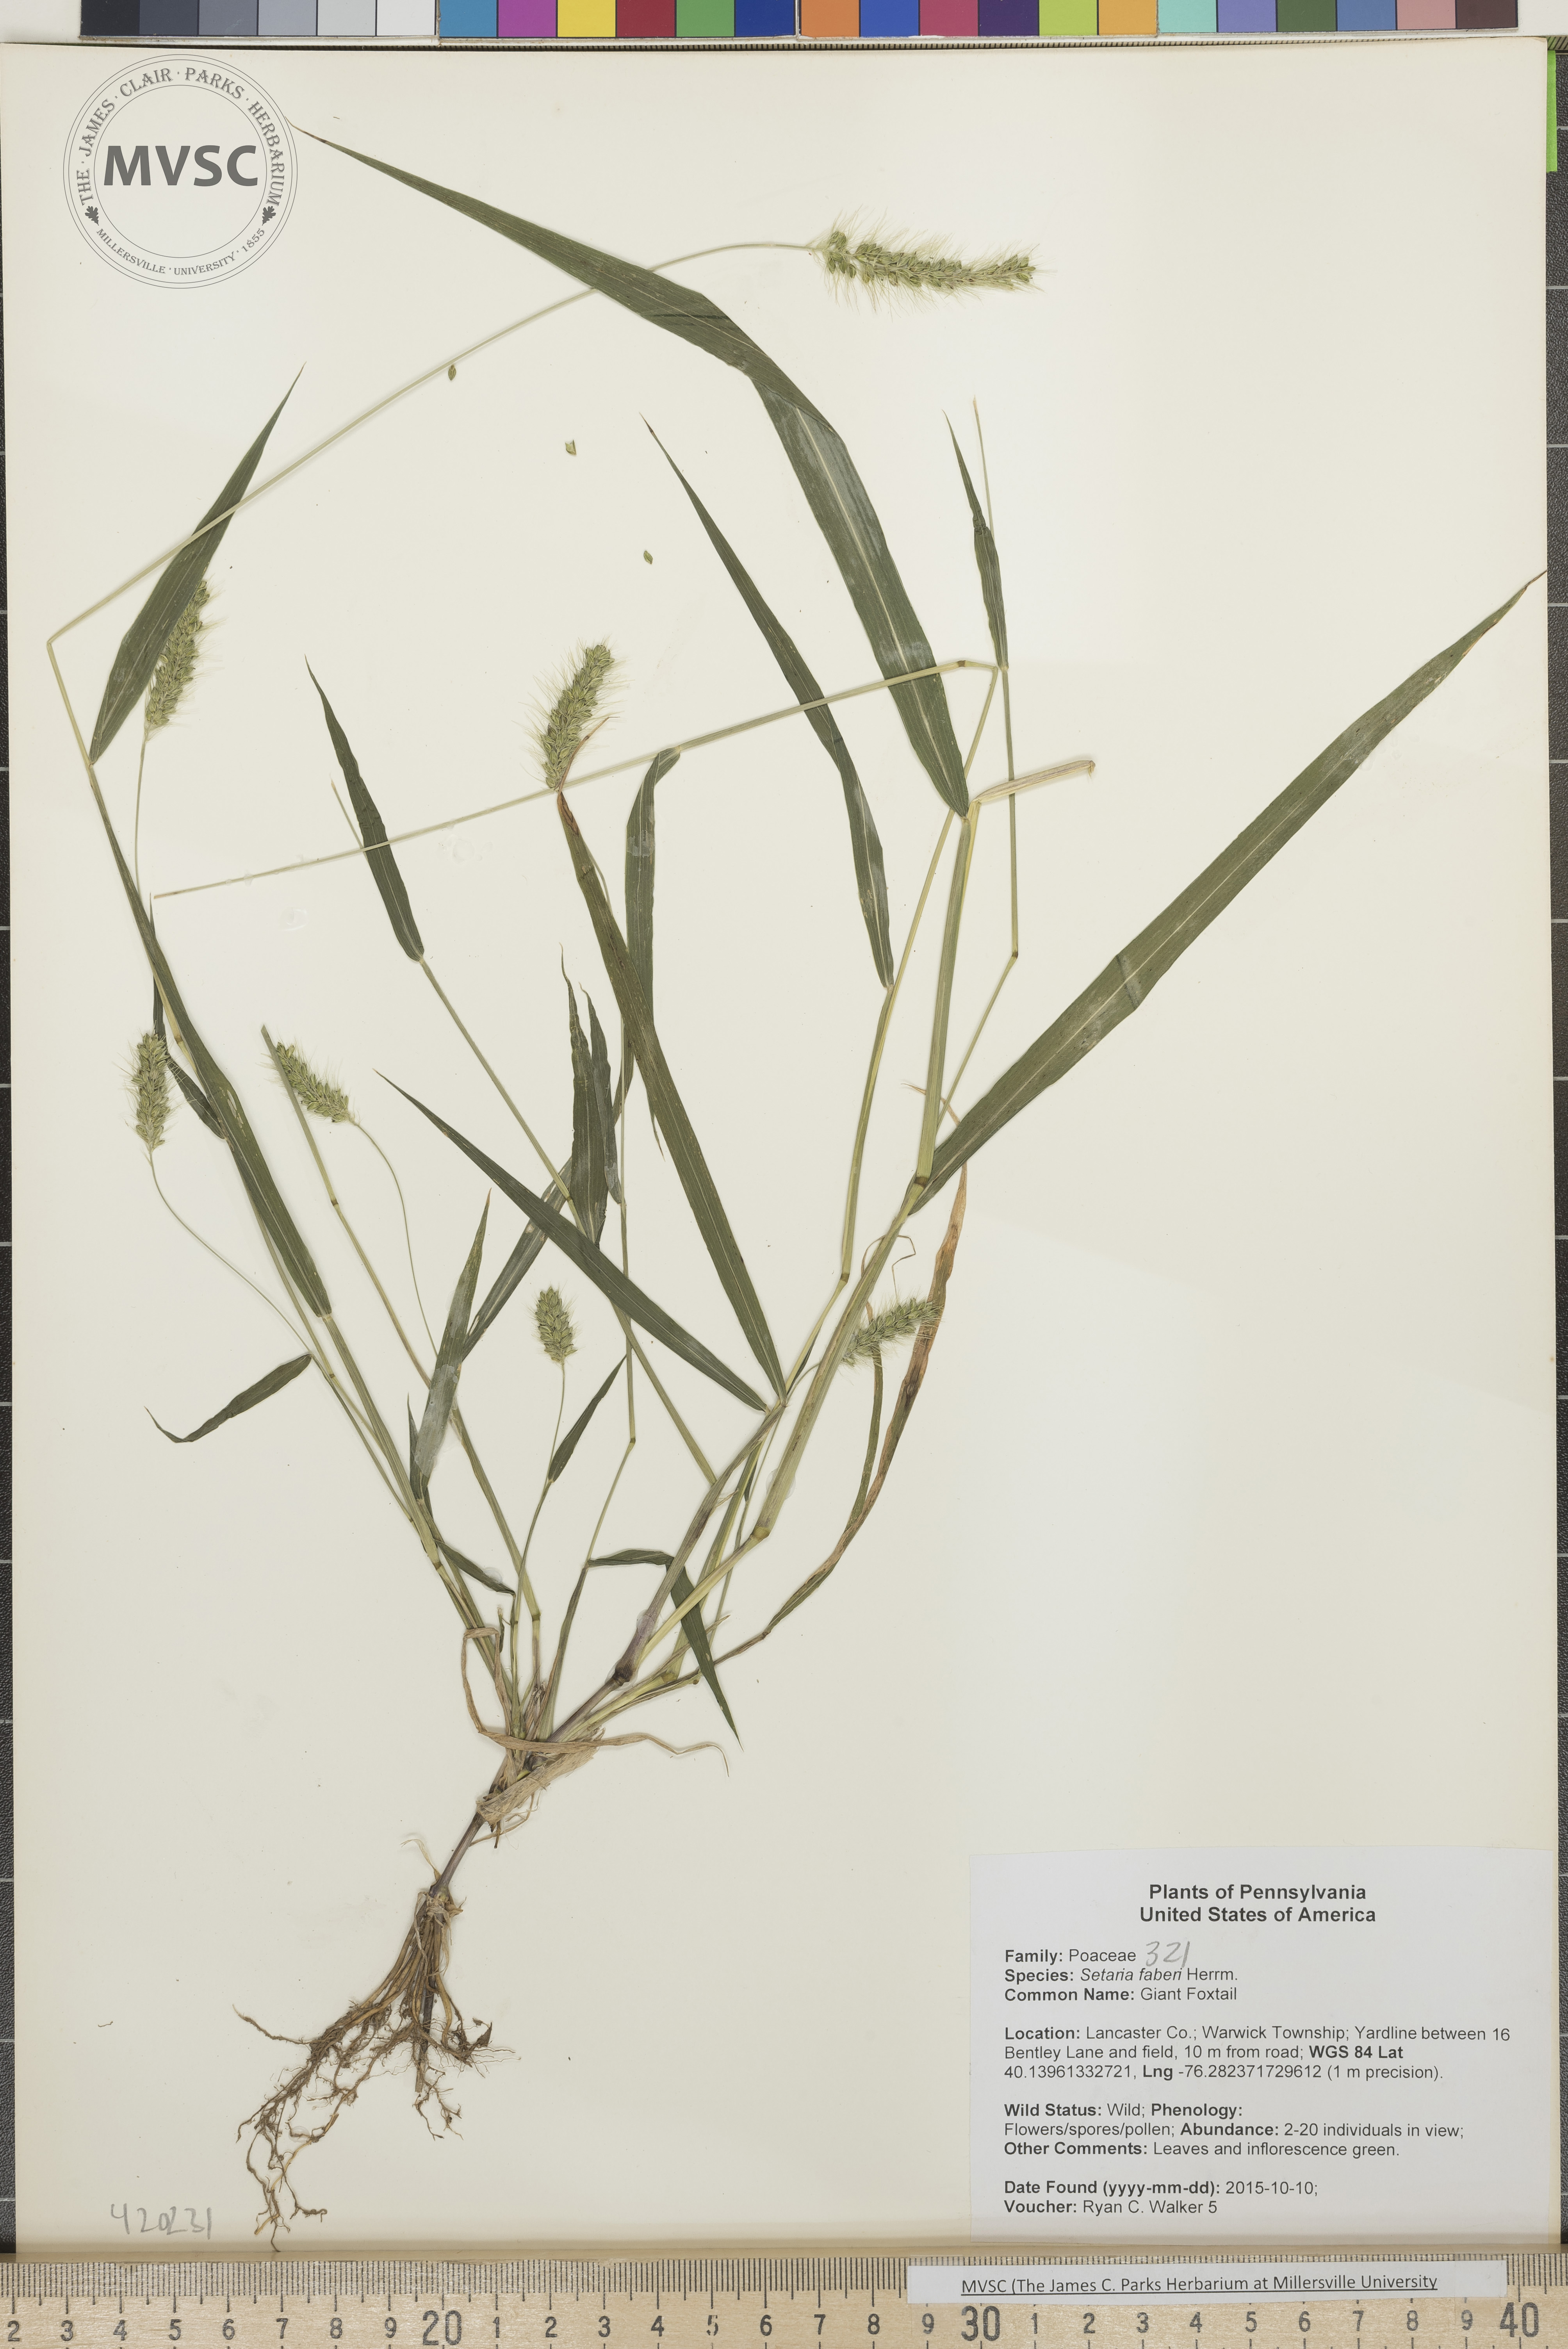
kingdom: Plantae
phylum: Tracheophyta
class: Liliopsida
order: Poales
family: Poaceae
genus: Setaria
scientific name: Setaria faberi
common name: Giant Foxtail
